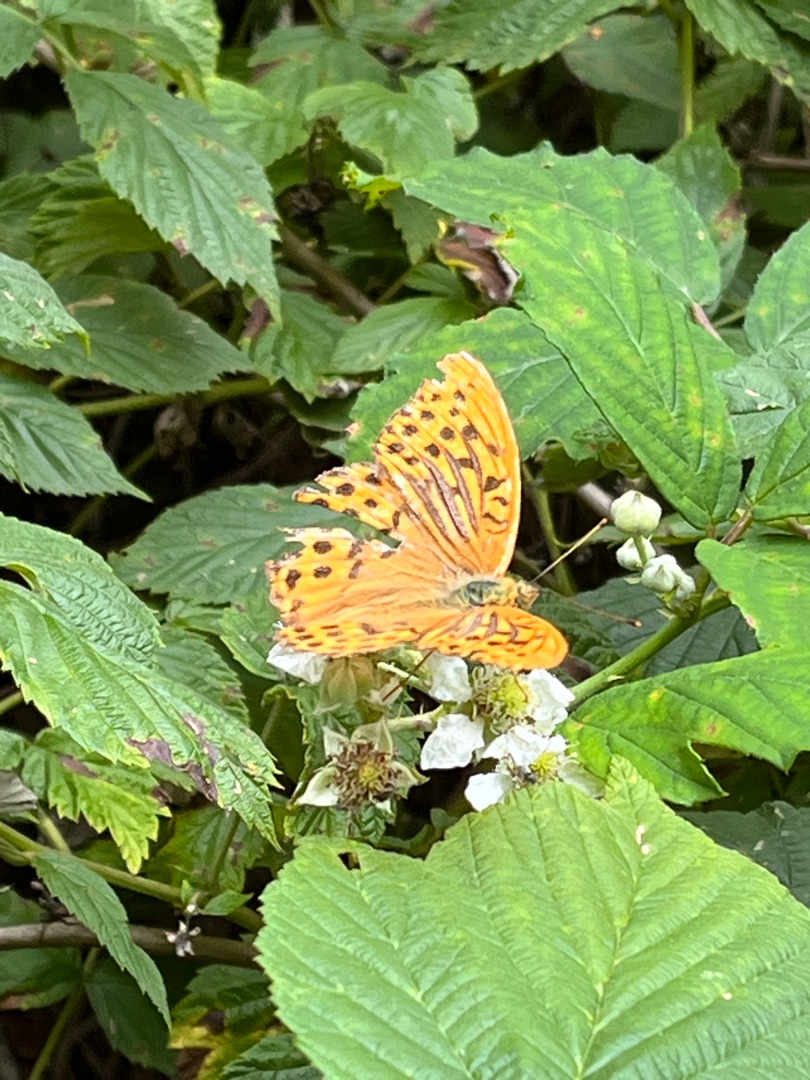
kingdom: Animalia
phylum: Arthropoda
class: Insecta
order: Lepidoptera
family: Nymphalidae
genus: Argynnis
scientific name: Argynnis paphia
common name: Kejserkåbe
